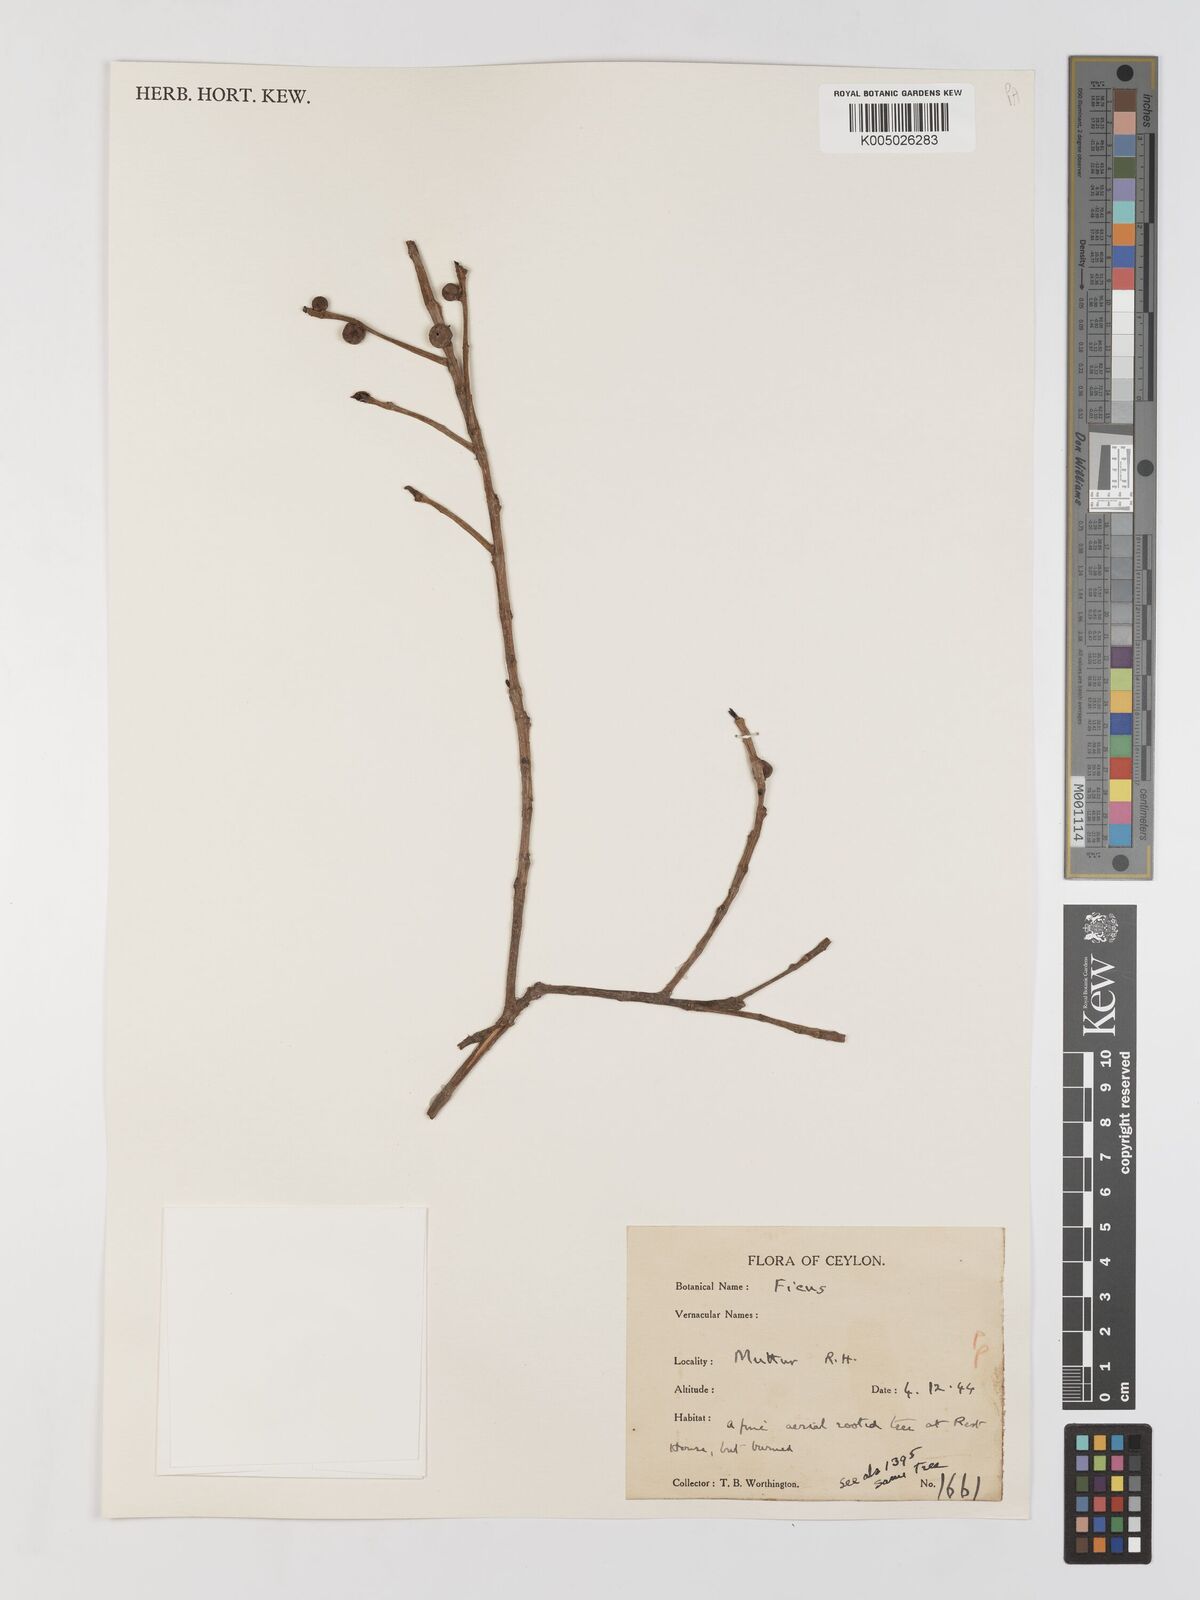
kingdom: Plantae
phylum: Tracheophyta
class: Magnoliopsida
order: Rosales
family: Moraceae
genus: Ficus
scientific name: Ficus
